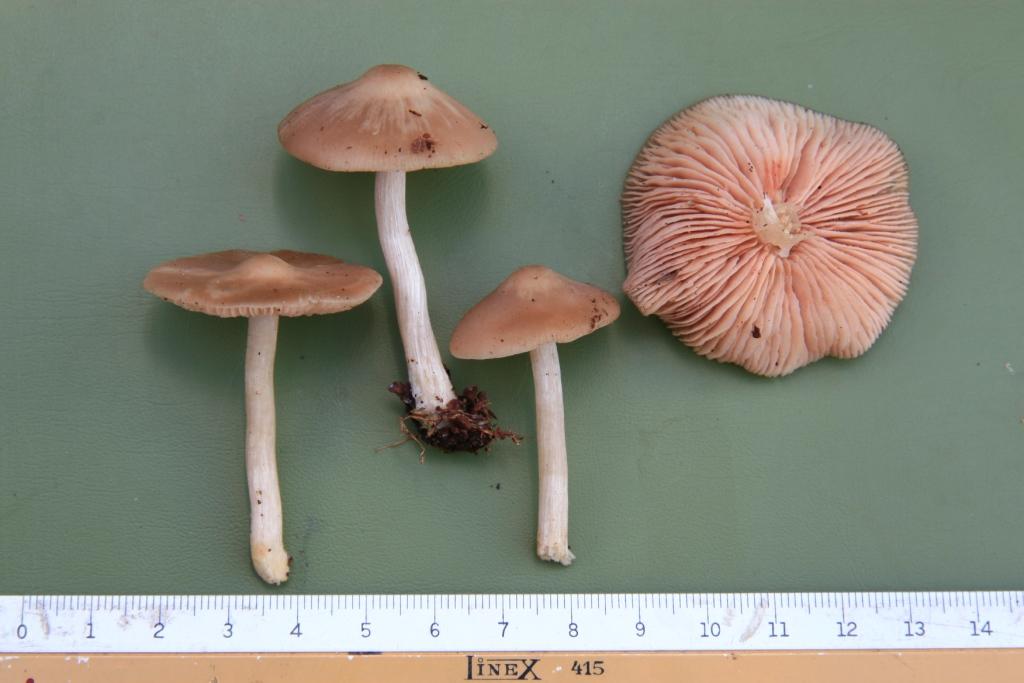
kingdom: Fungi
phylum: Basidiomycota
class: Agaricomycetes
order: Agaricales
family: Entolomataceae
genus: Entoloma
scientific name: Entoloma sericatum
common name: rank rødblad
